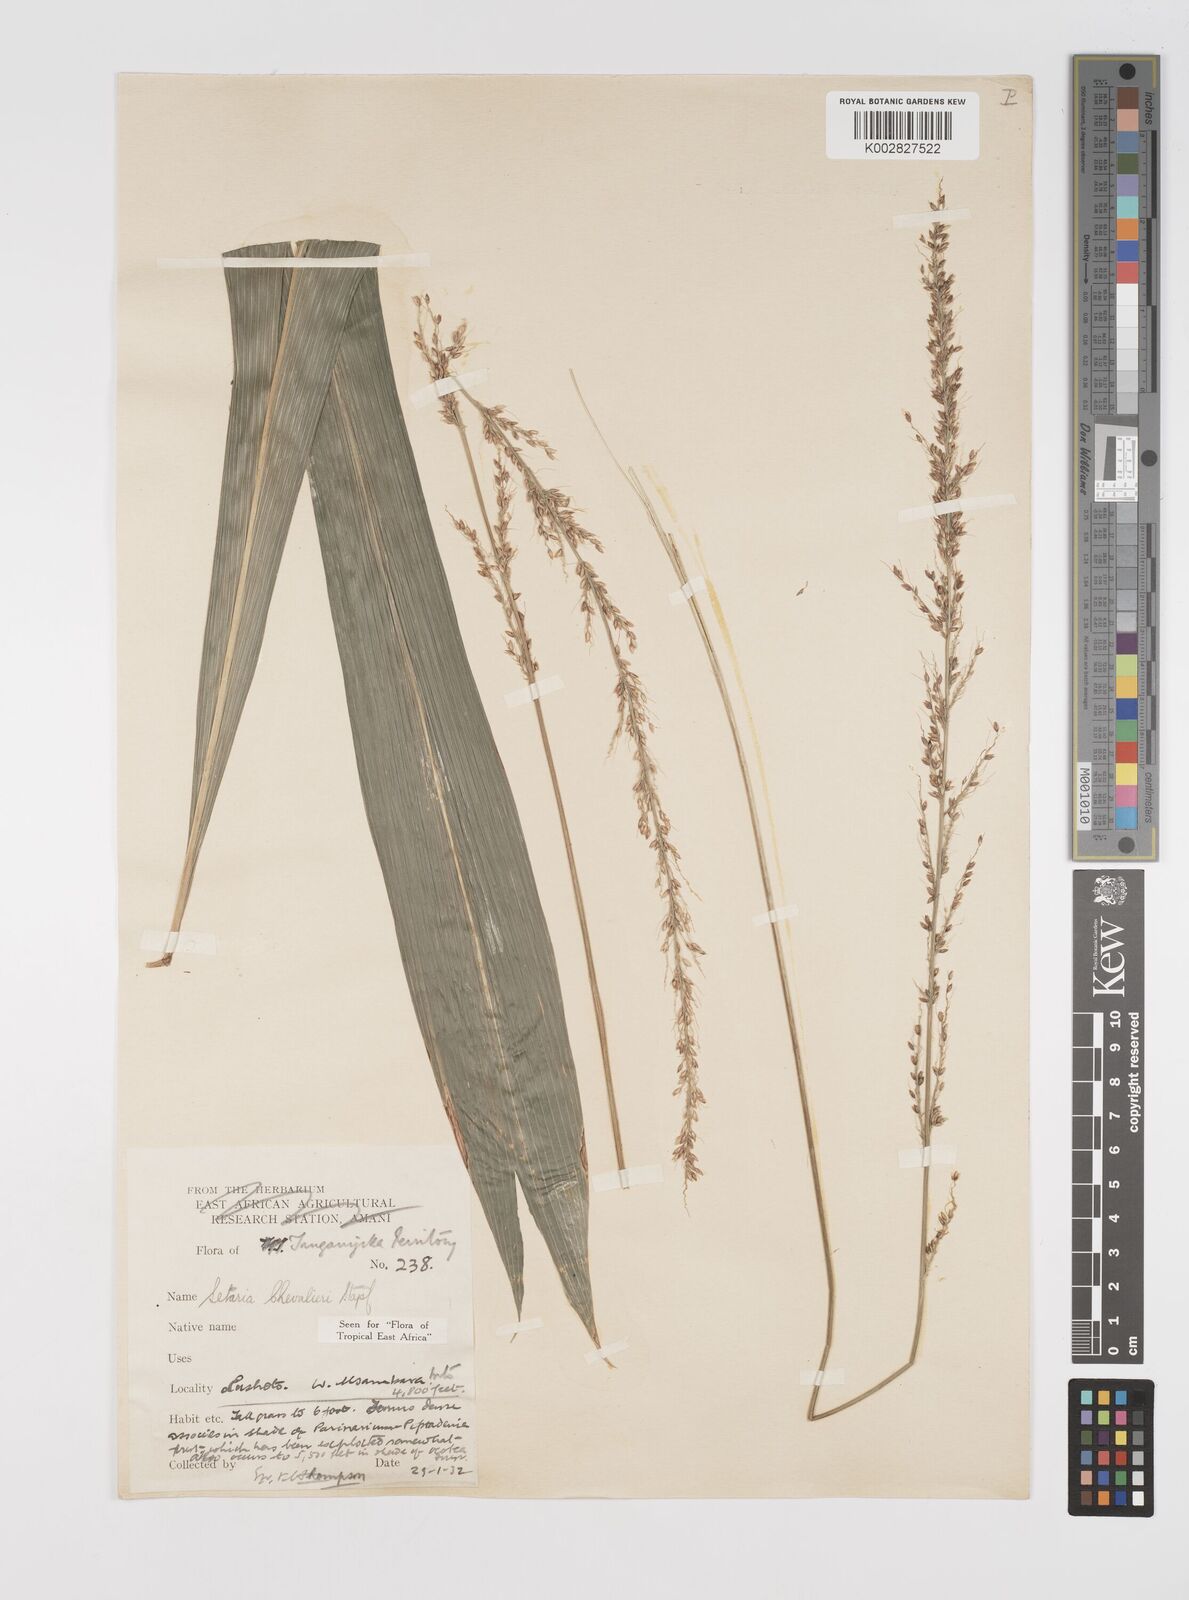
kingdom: Plantae
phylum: Tracheophyta
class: Liliopsida
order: Poales
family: Poaceae
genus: Setaria
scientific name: Setaria megaphylla
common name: Bigleaf bristlegrass
